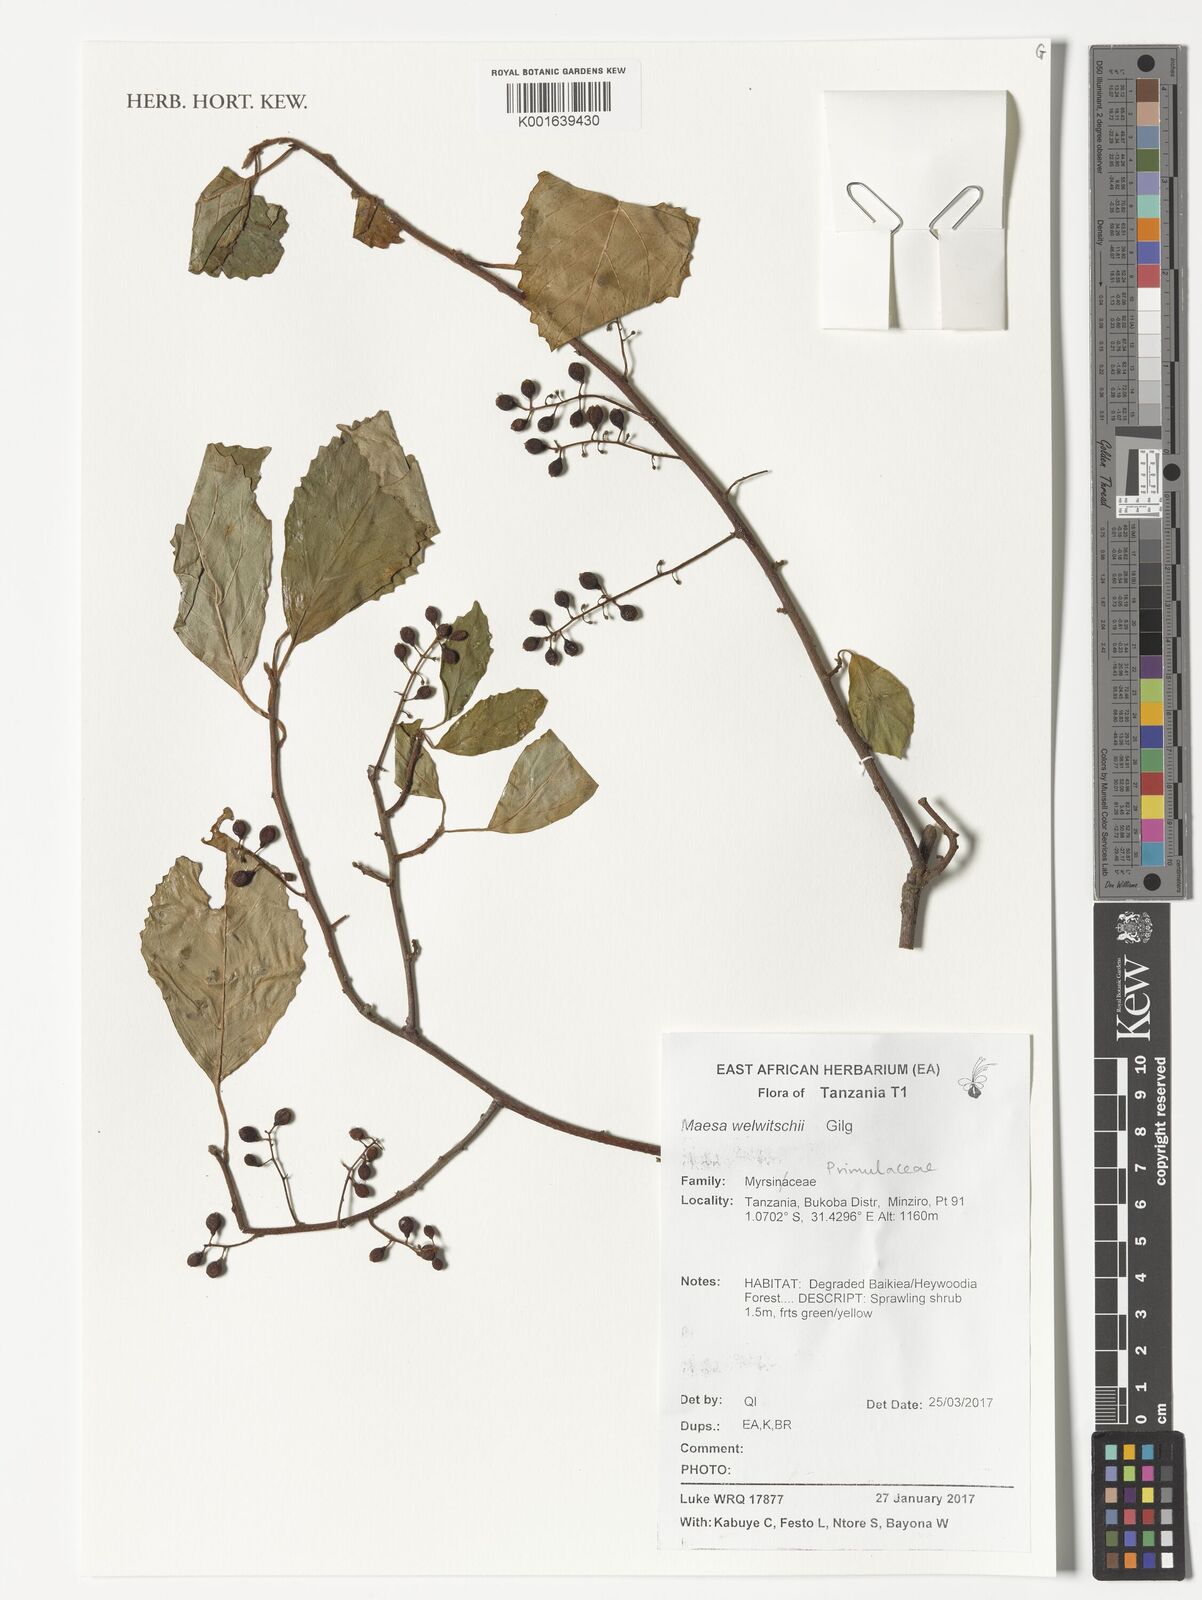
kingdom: Plantae
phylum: Tracheophyta
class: Magnoliopsida
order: Ericales
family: Primulaceae
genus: Maesa
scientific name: Maesa welwitschii
